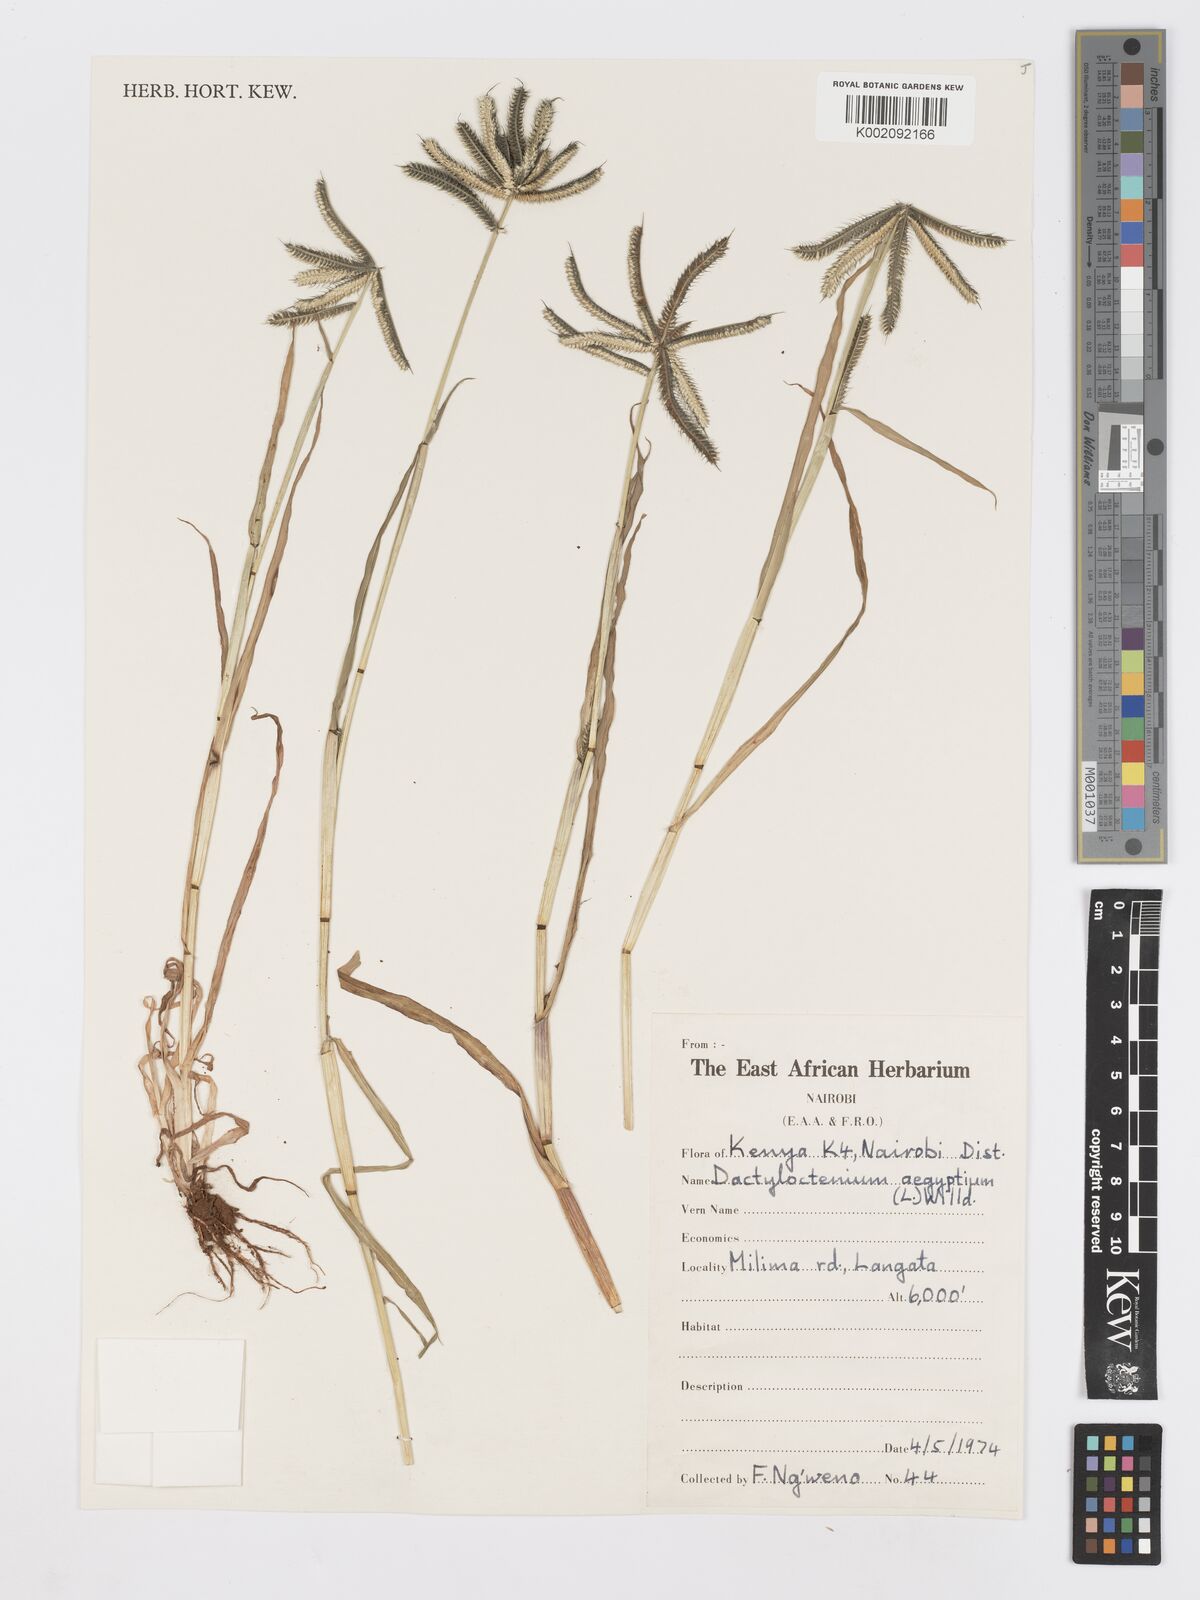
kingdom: Plantae
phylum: Tracheophyta
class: Liliopsida
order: Poales
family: Poaceae
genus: Dactyloctenium
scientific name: Dactyloctenium aegyptium
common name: Egyptian grass
